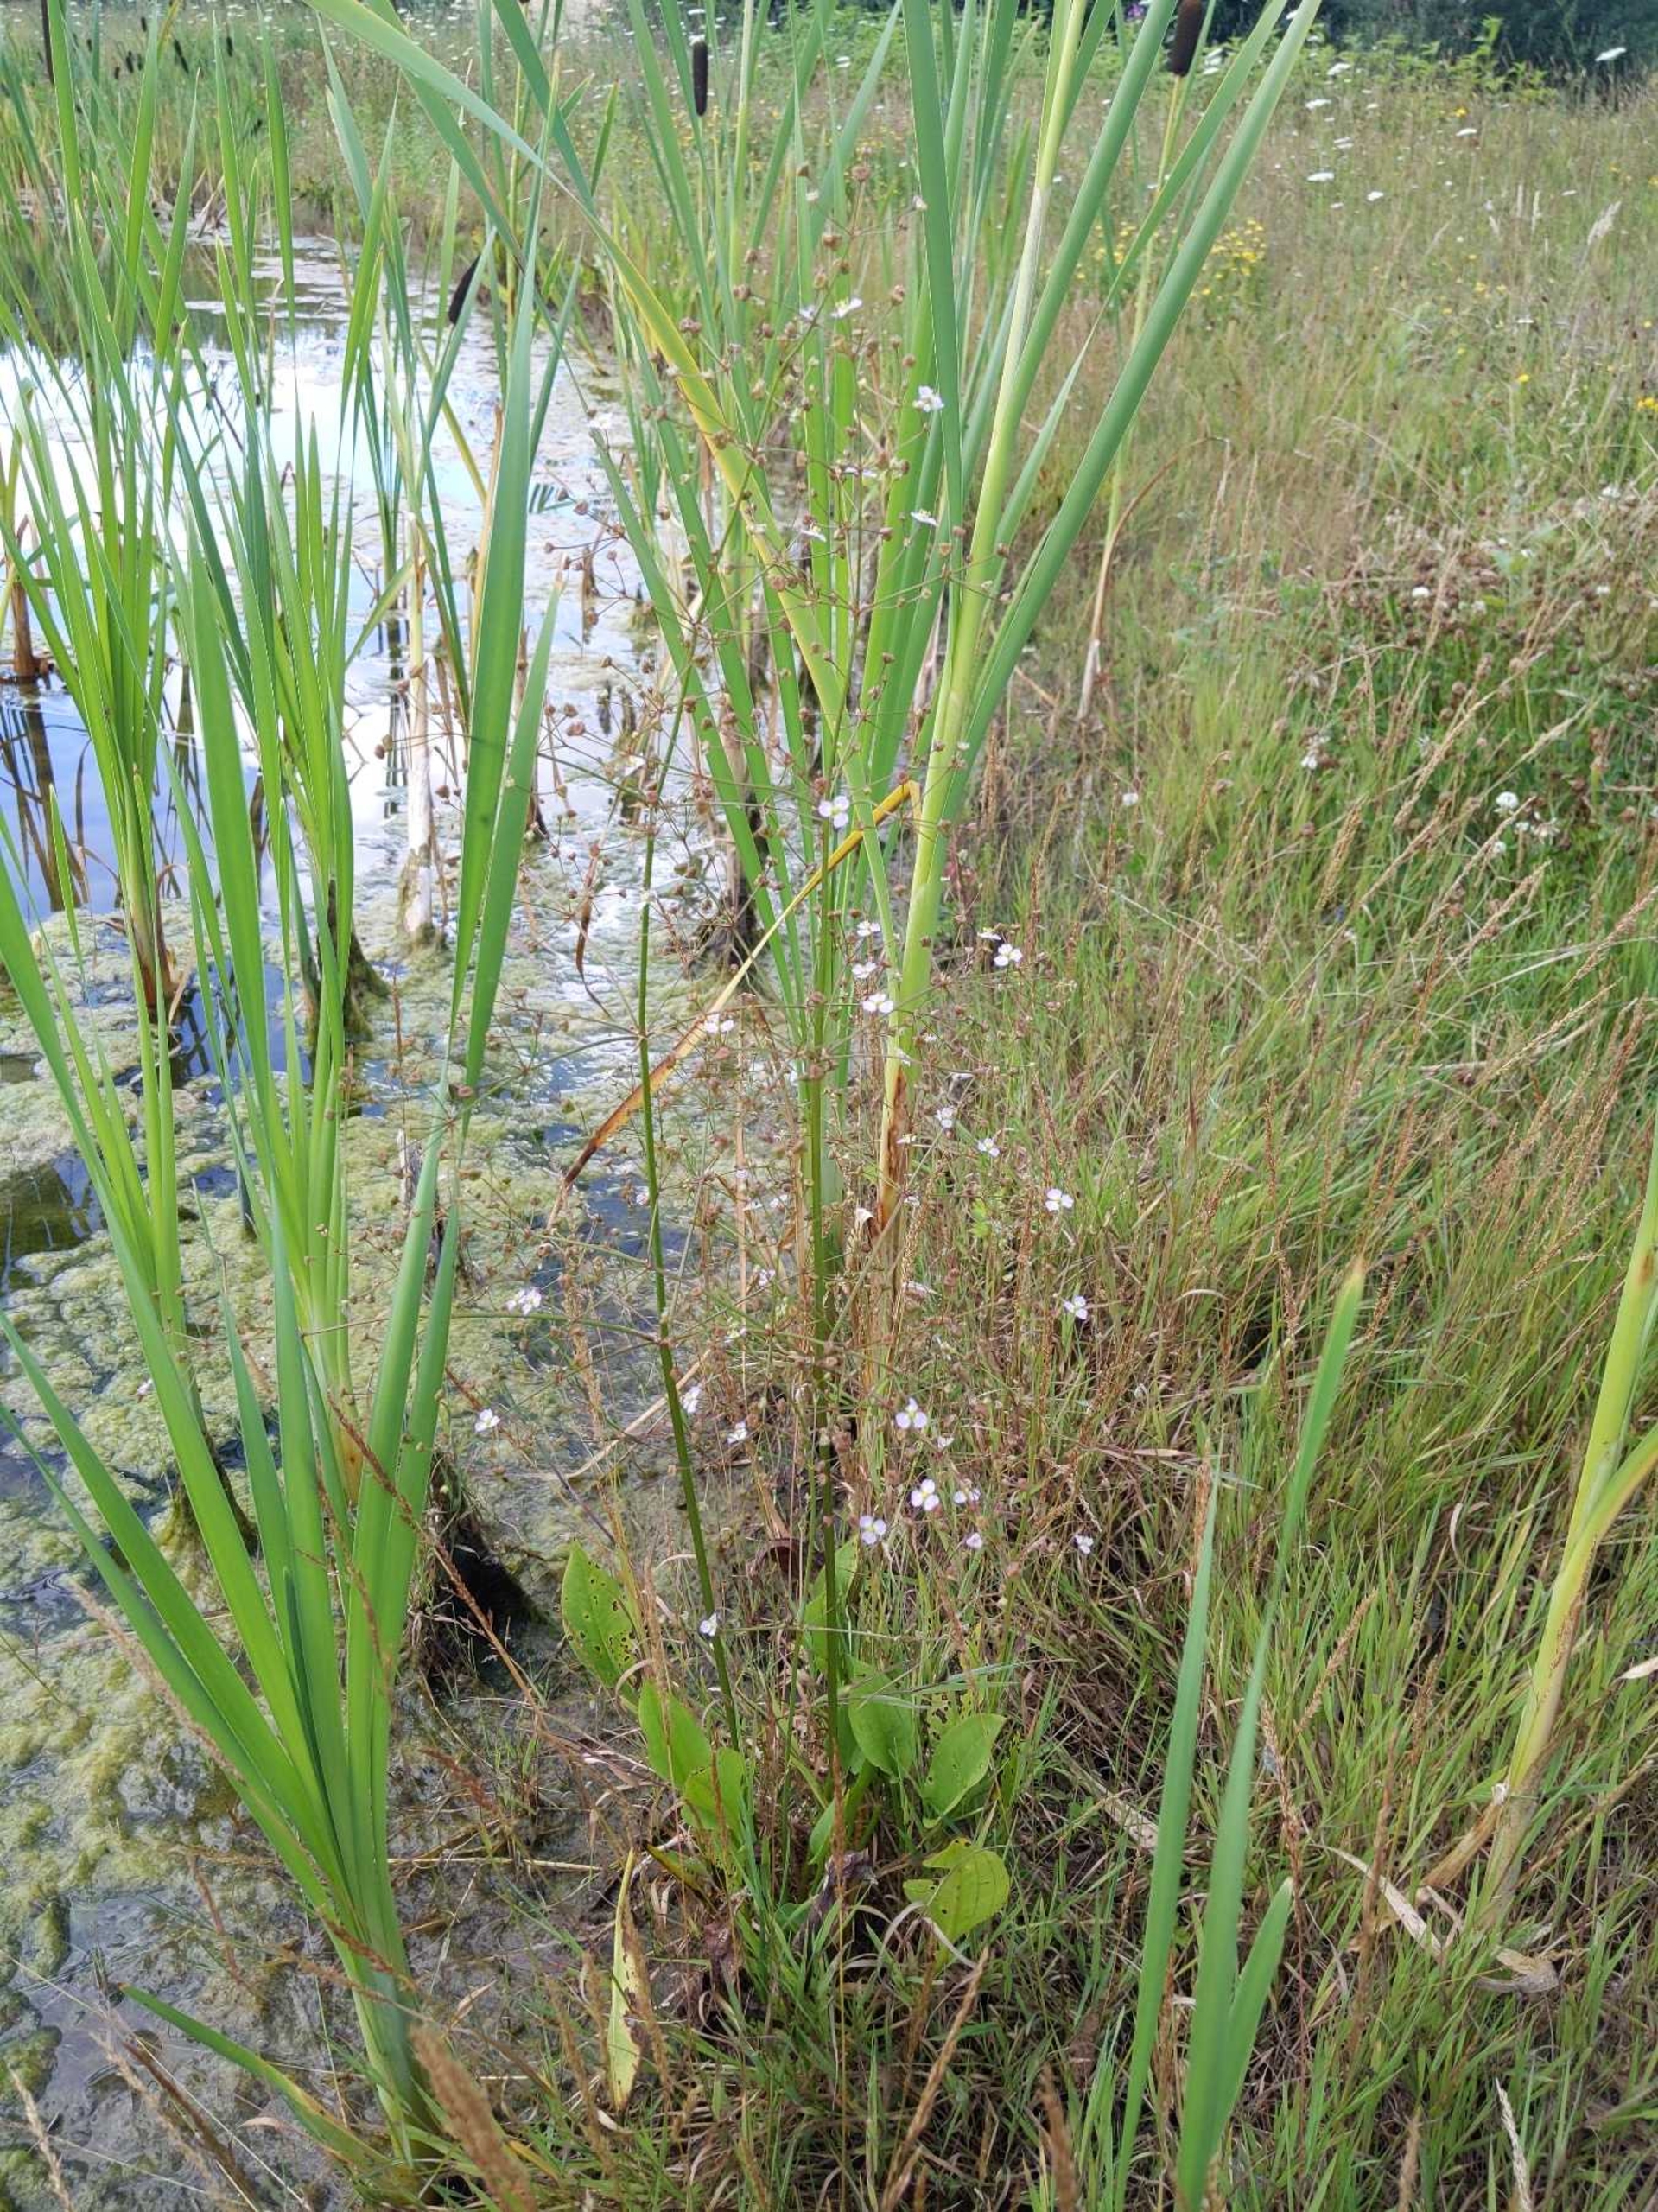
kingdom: Plantae
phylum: Tracheophyta
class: Liliopsida
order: Alismatales
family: Alismataceae
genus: Alisma
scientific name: Alisma plantago-aquatica
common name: Vejbred-skeblad
